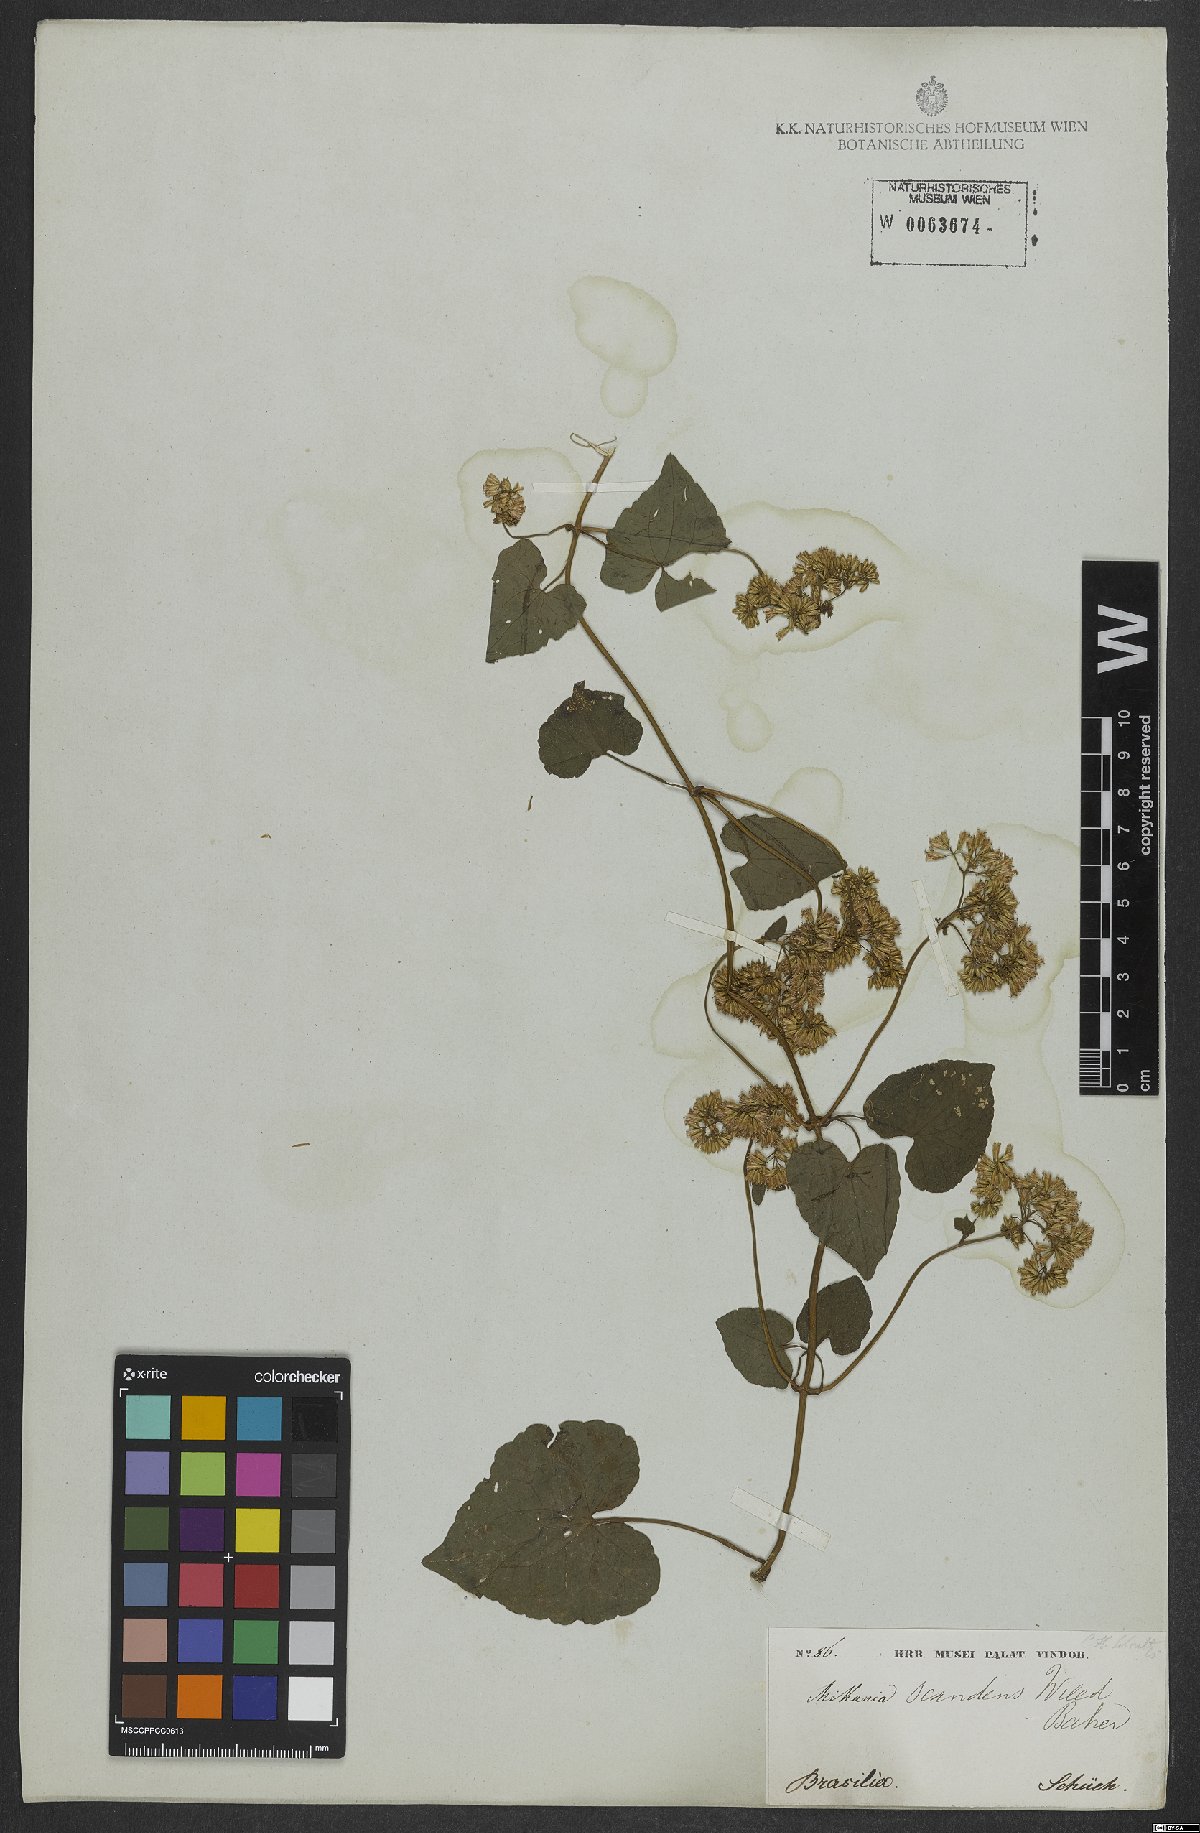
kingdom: Plantae
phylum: Tracheophyta
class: Magnoliopsida
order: Asterales
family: Asteraceae
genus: Mikania
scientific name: Mikania scandens
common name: Climbing hempvine
